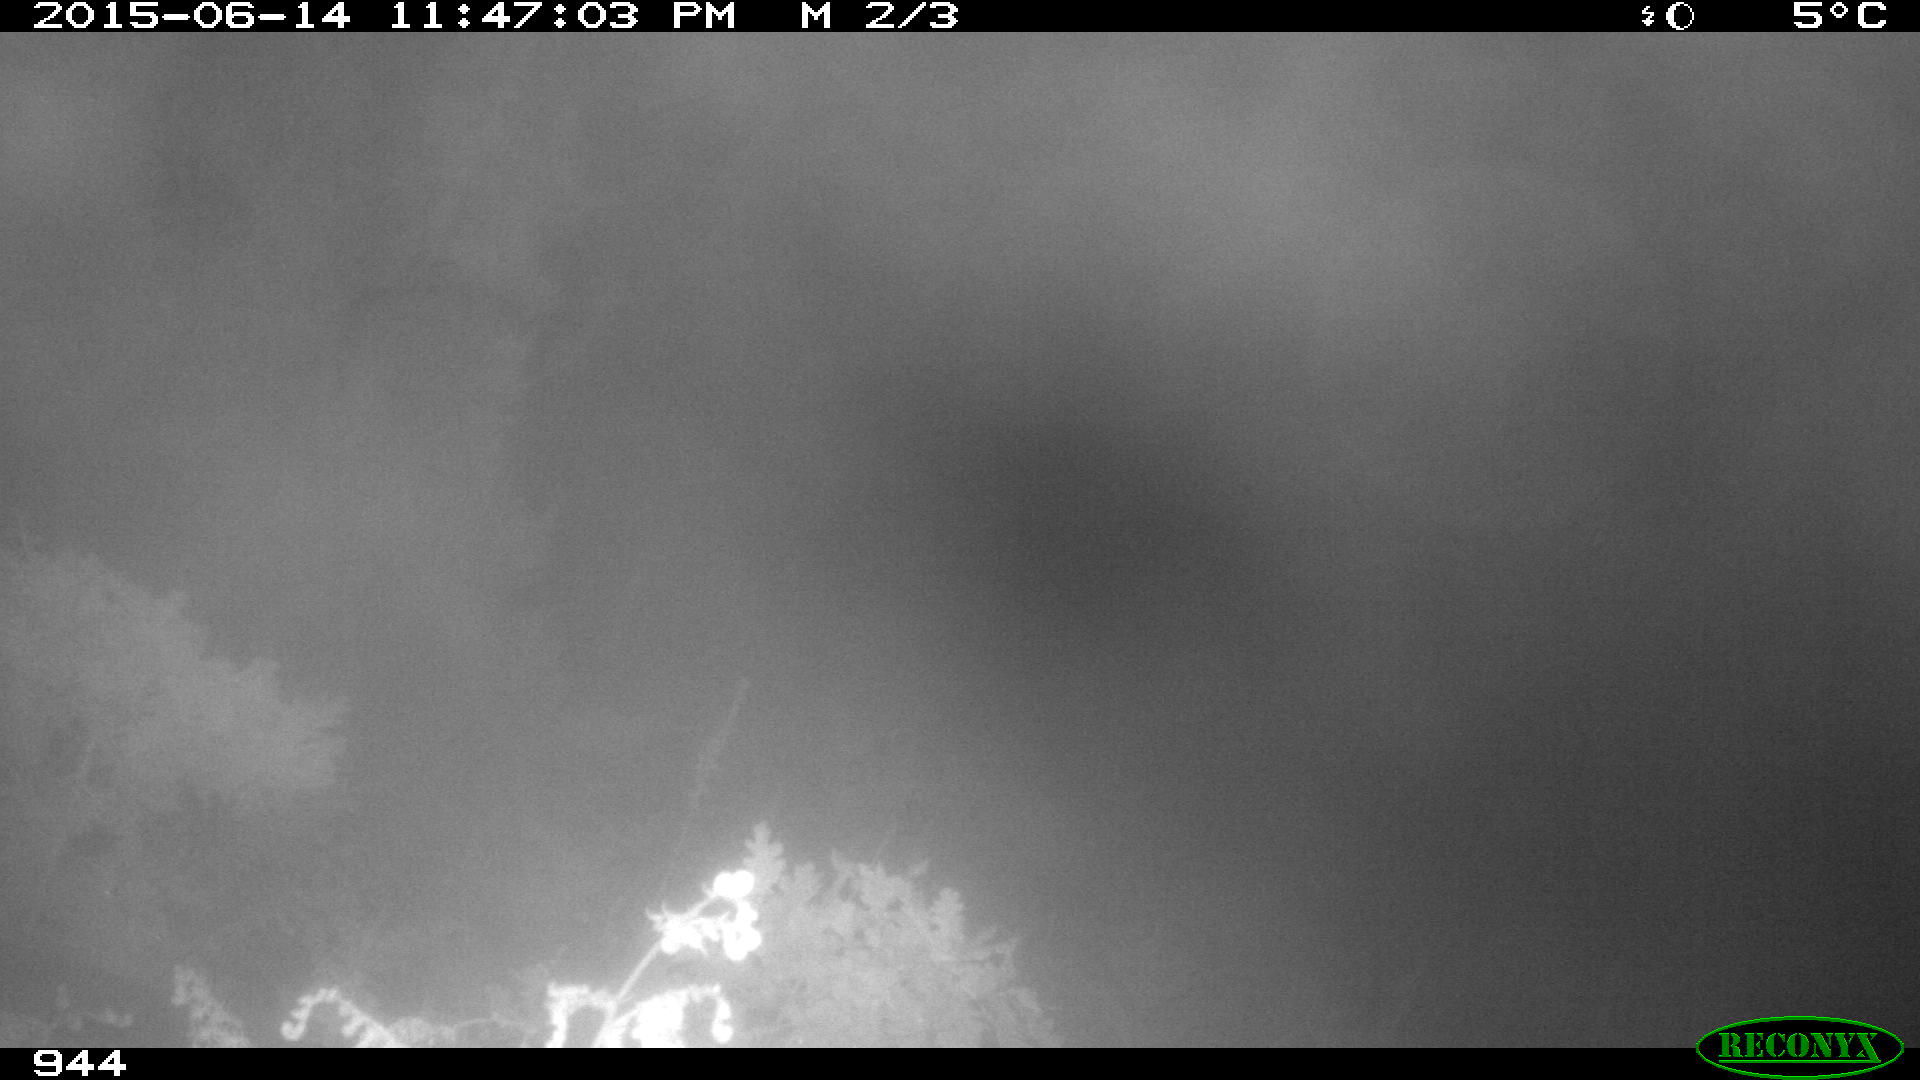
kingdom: Animalia
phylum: Chordata
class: Mammalia
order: Artiodactyla
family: Cervidae
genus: Capreolus
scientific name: Capreolus capreolus
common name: Western roe deer
